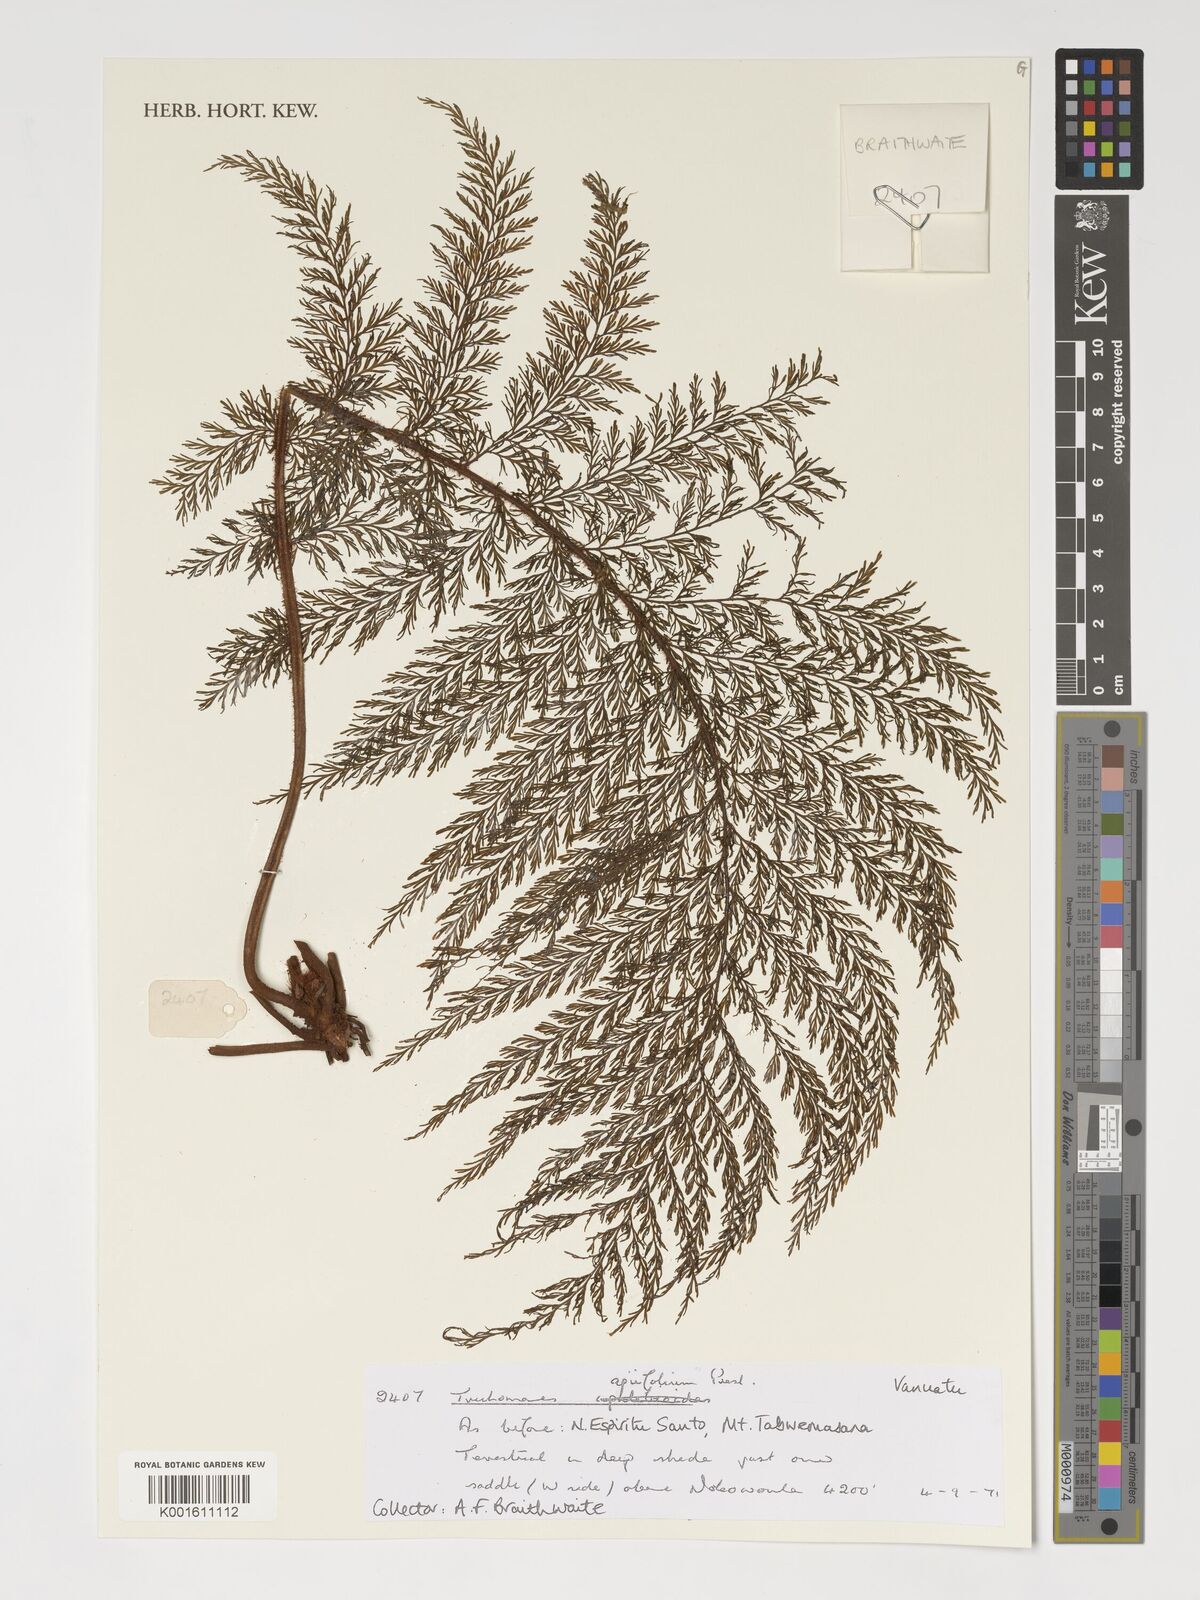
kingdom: Plantae
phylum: Tracheophyta
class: Polypodiopsida
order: Hymenophyllales
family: Hymenophyllaceae
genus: Callistopteris
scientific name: Callistopteris apiifolia
